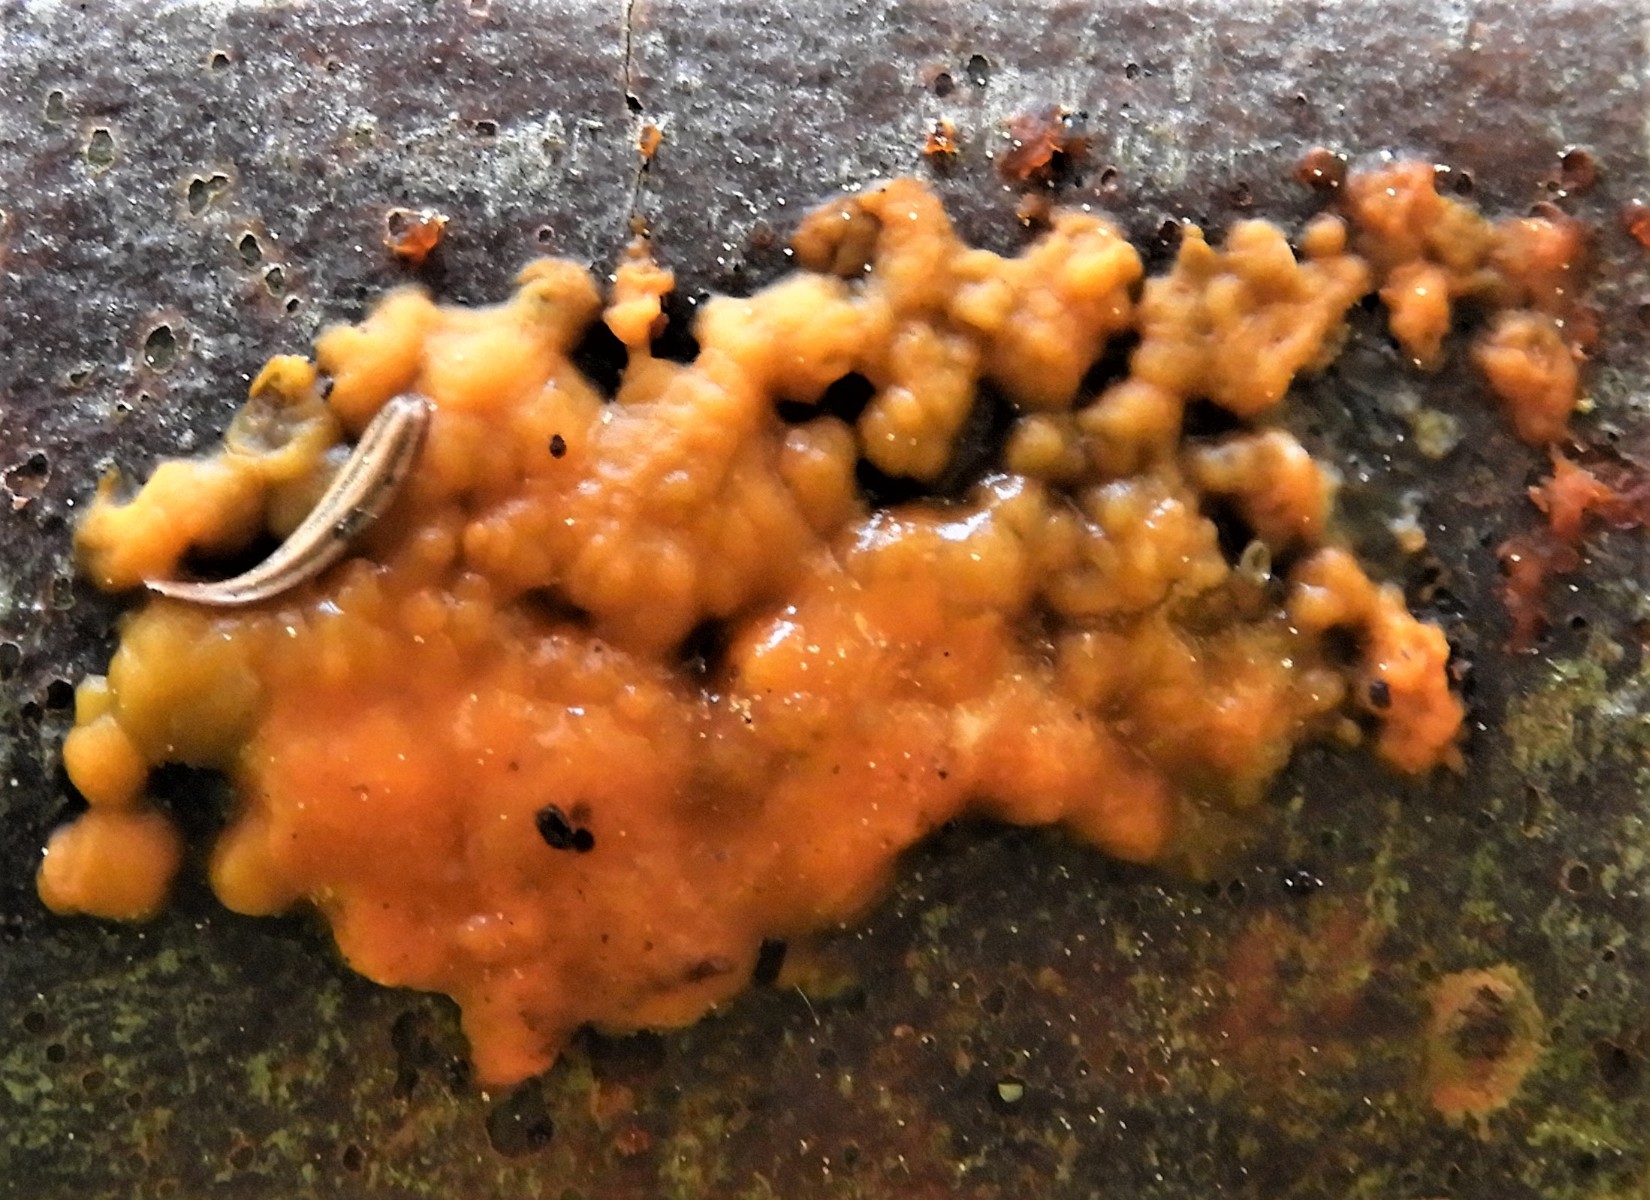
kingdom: Fungi
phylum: Basidiomycota
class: Dacrymycetes
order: Dacrymycetales
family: Dacrymycetaceae
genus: Dacrymyces
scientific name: Dacrymyces stillatus
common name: almindelig tåresvamp
